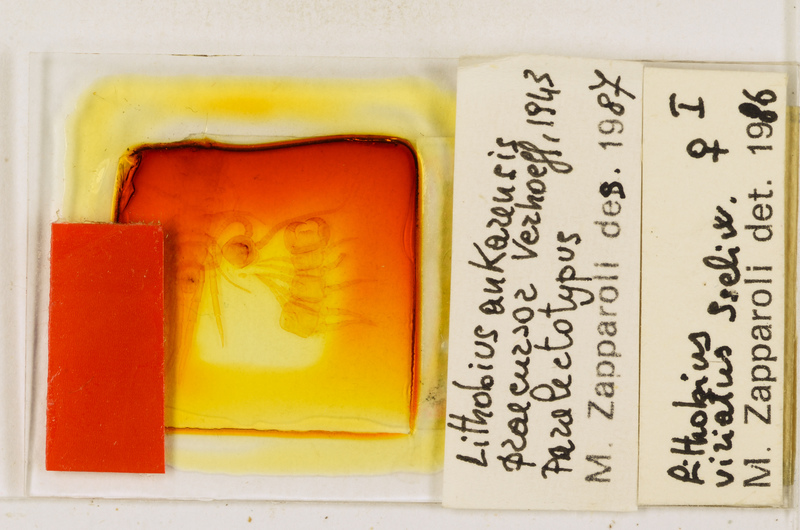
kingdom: Animalia
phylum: Arthropoda
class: Chilopoda
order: Lithobiomorpha
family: Lithobiidae
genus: Lithobius
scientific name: Lithobius viriatus
